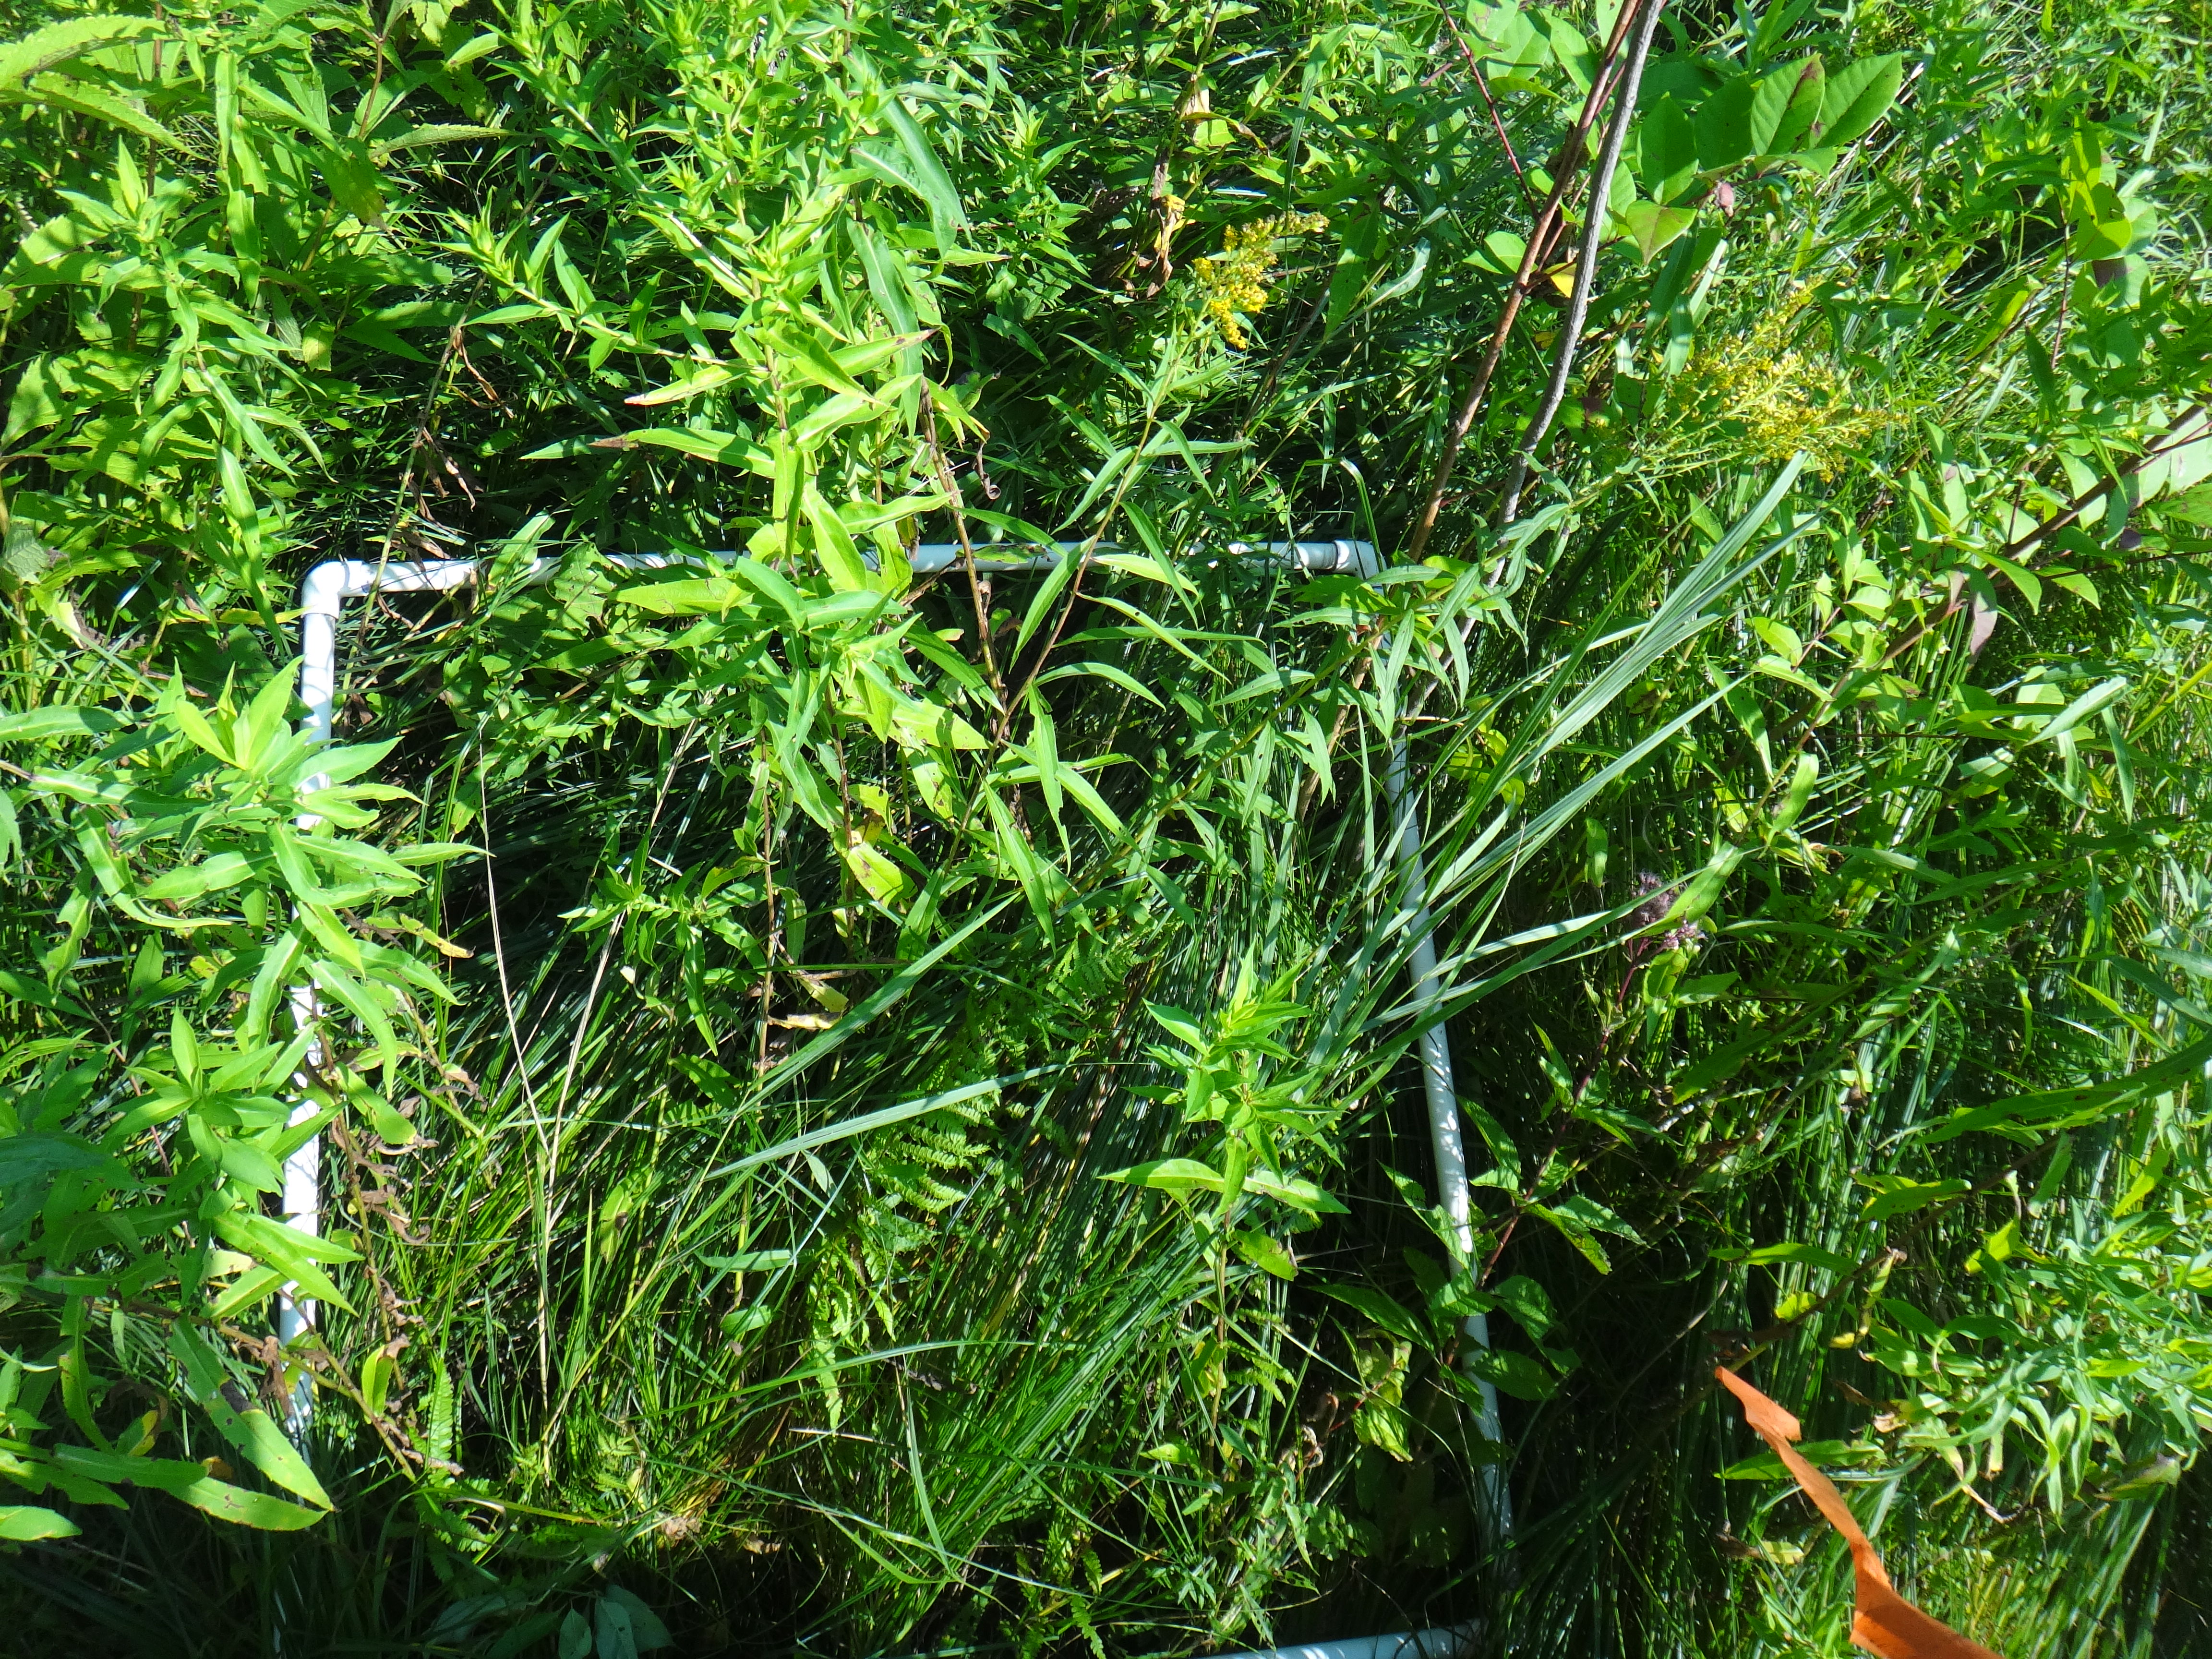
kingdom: Plantae
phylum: Tracheophyta
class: Magnoliopsida
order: Rosales
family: Rhamnaceae
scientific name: Rhamnaceae
